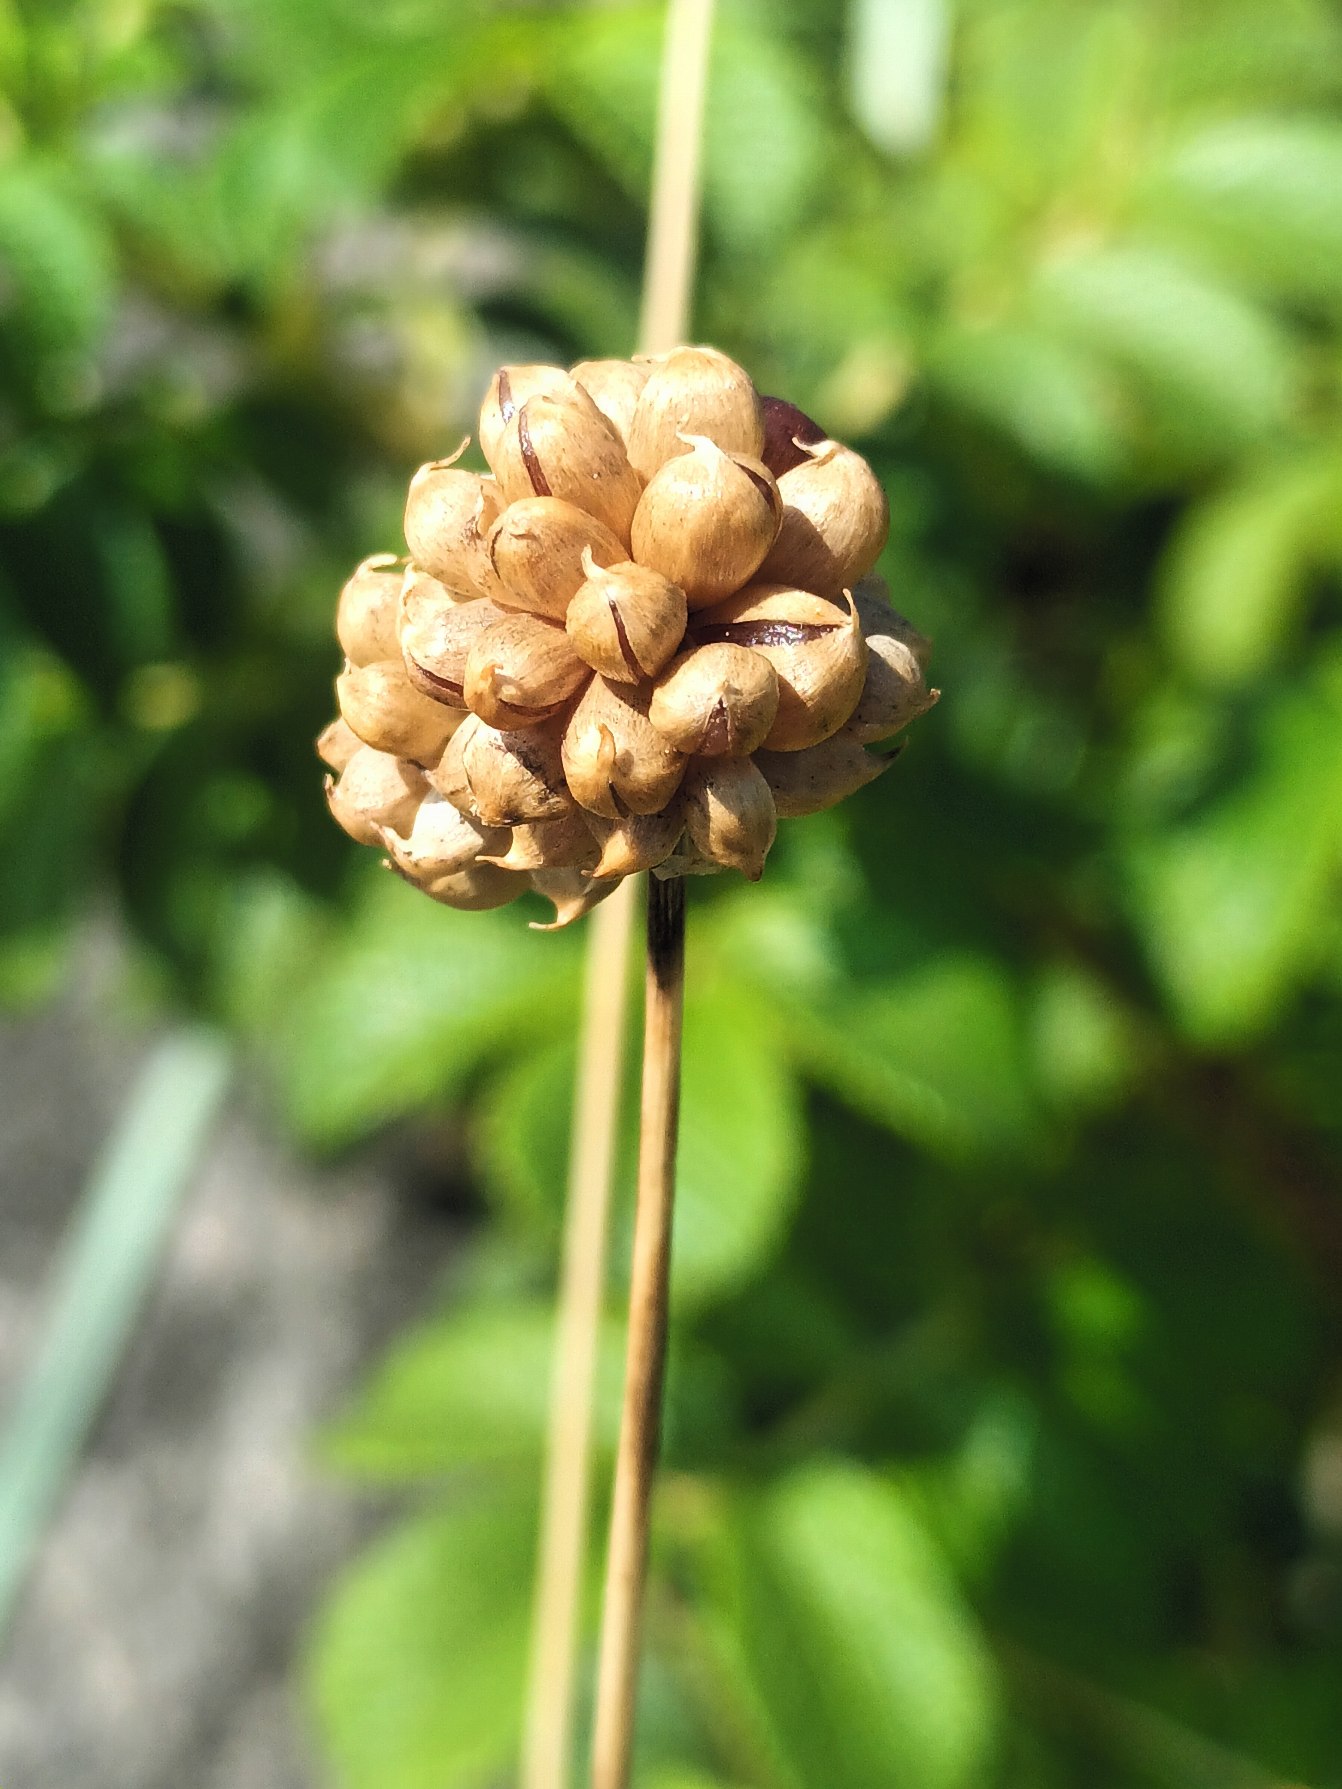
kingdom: Plantae
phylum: Tracheophyta
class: Liliopsida
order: Asparagales
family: Amaryllidaceae
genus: Allium
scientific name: Allium vineale
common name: Sand-løg
